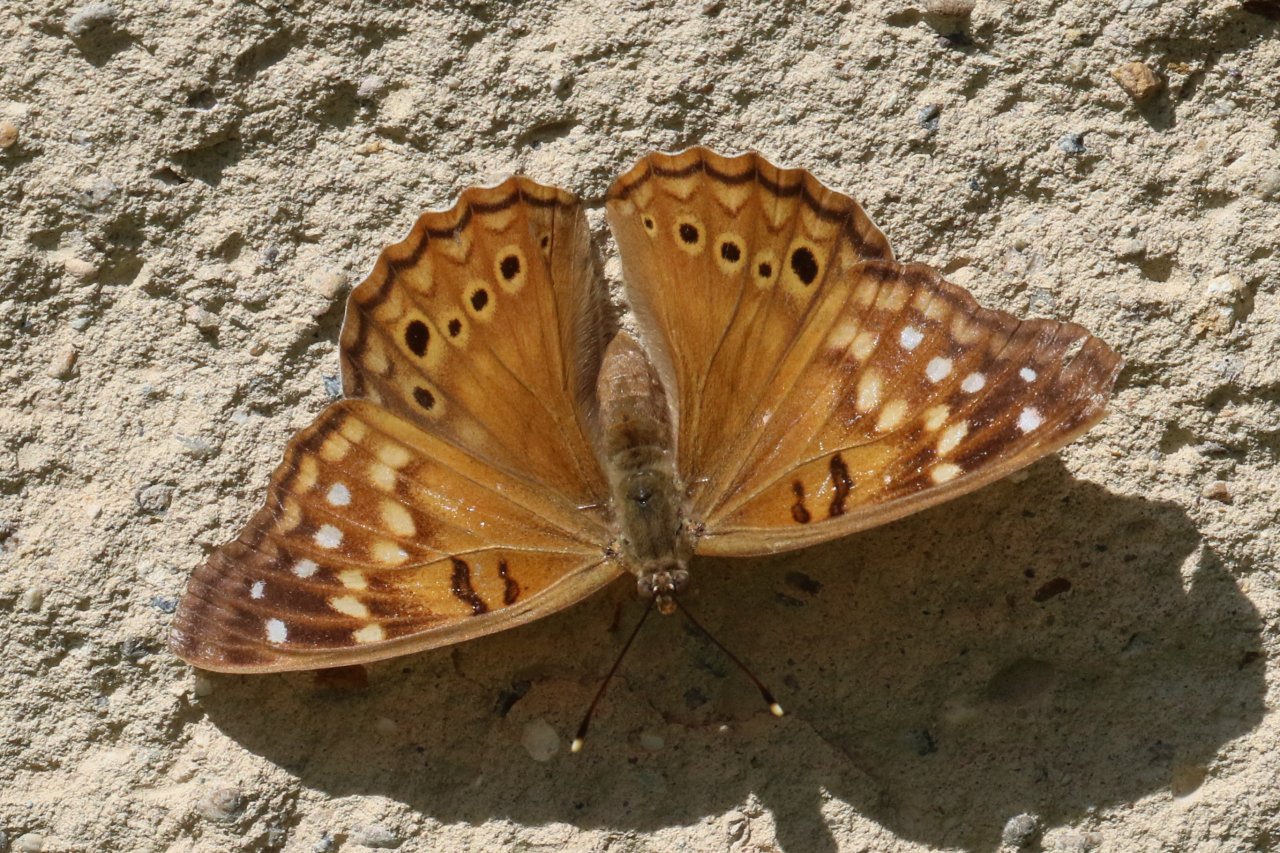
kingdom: Animalia
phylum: Arthropoda
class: Insecta
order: Lepidoptera
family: Nymphalidae
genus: Asterocampa
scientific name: Asterocampa clyton
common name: Tawny Emperor
